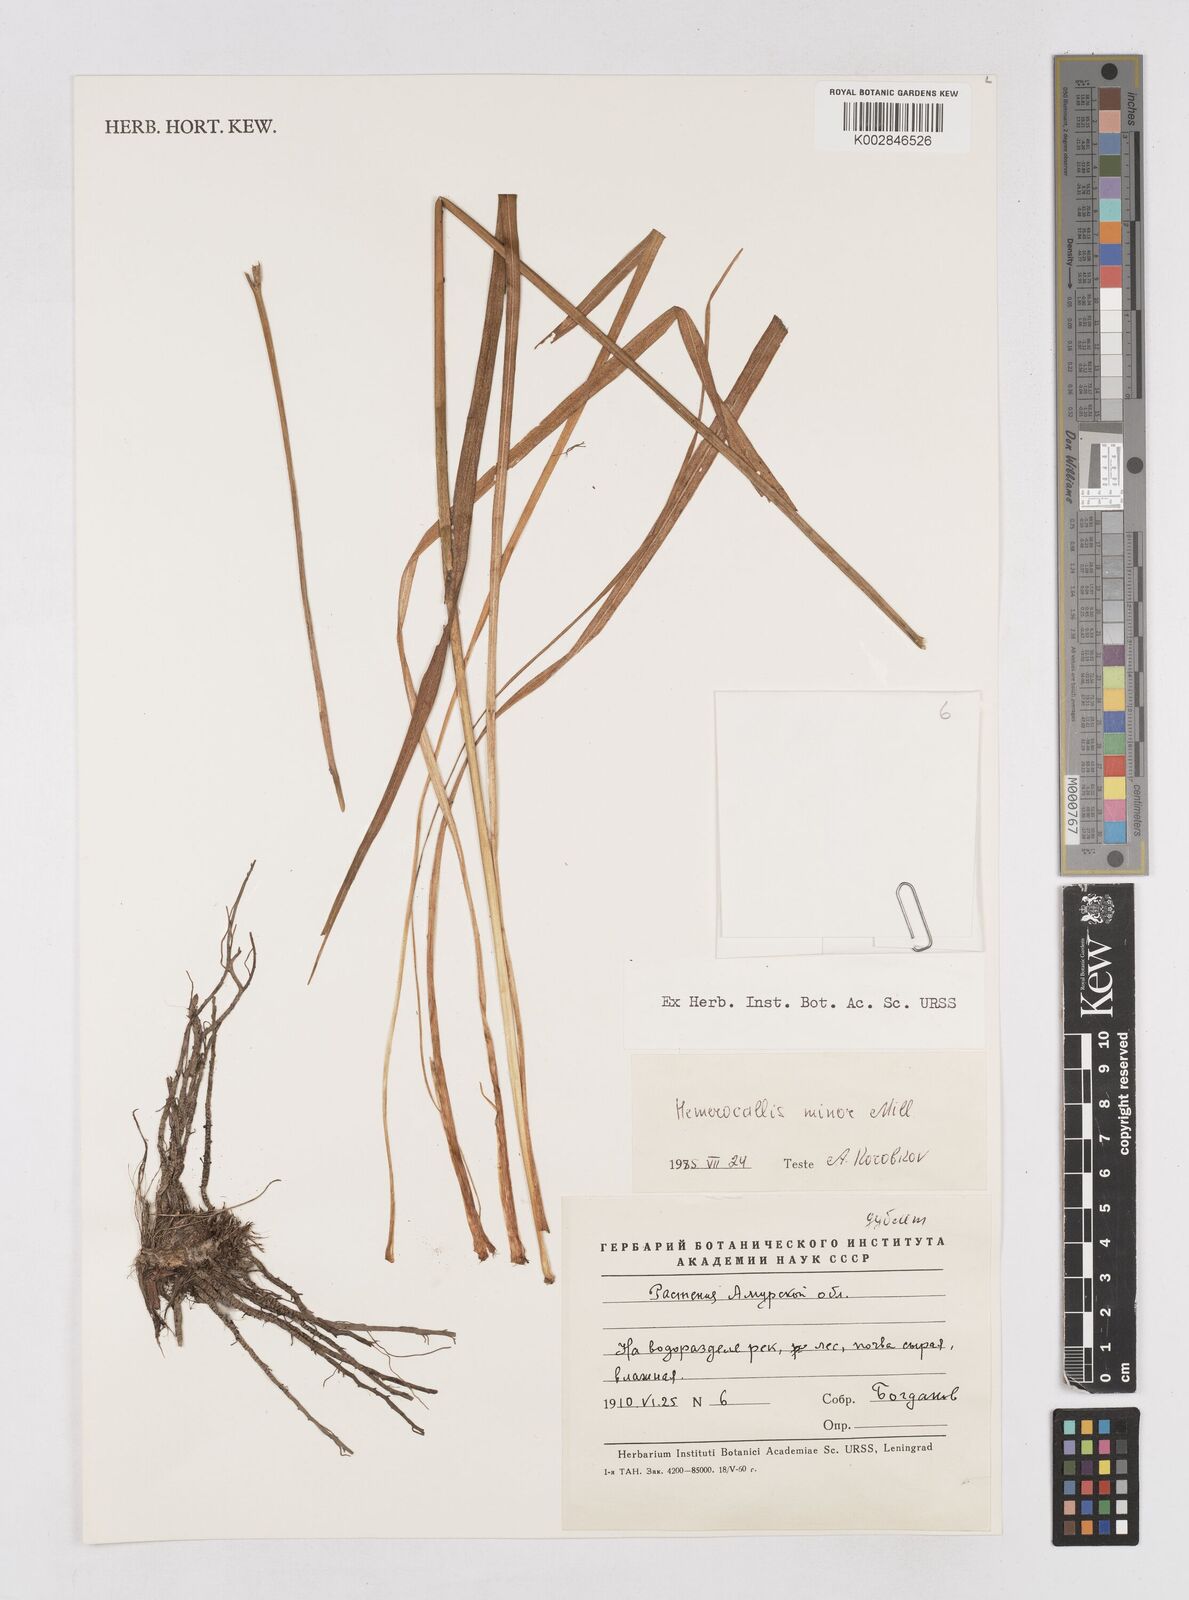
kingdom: Plantae
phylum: Tracheophyta
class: Liliopsida
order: Asparagales
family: Asphodelaceae
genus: Hemerocallis
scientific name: Hemerocallis minor
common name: Small daylily
